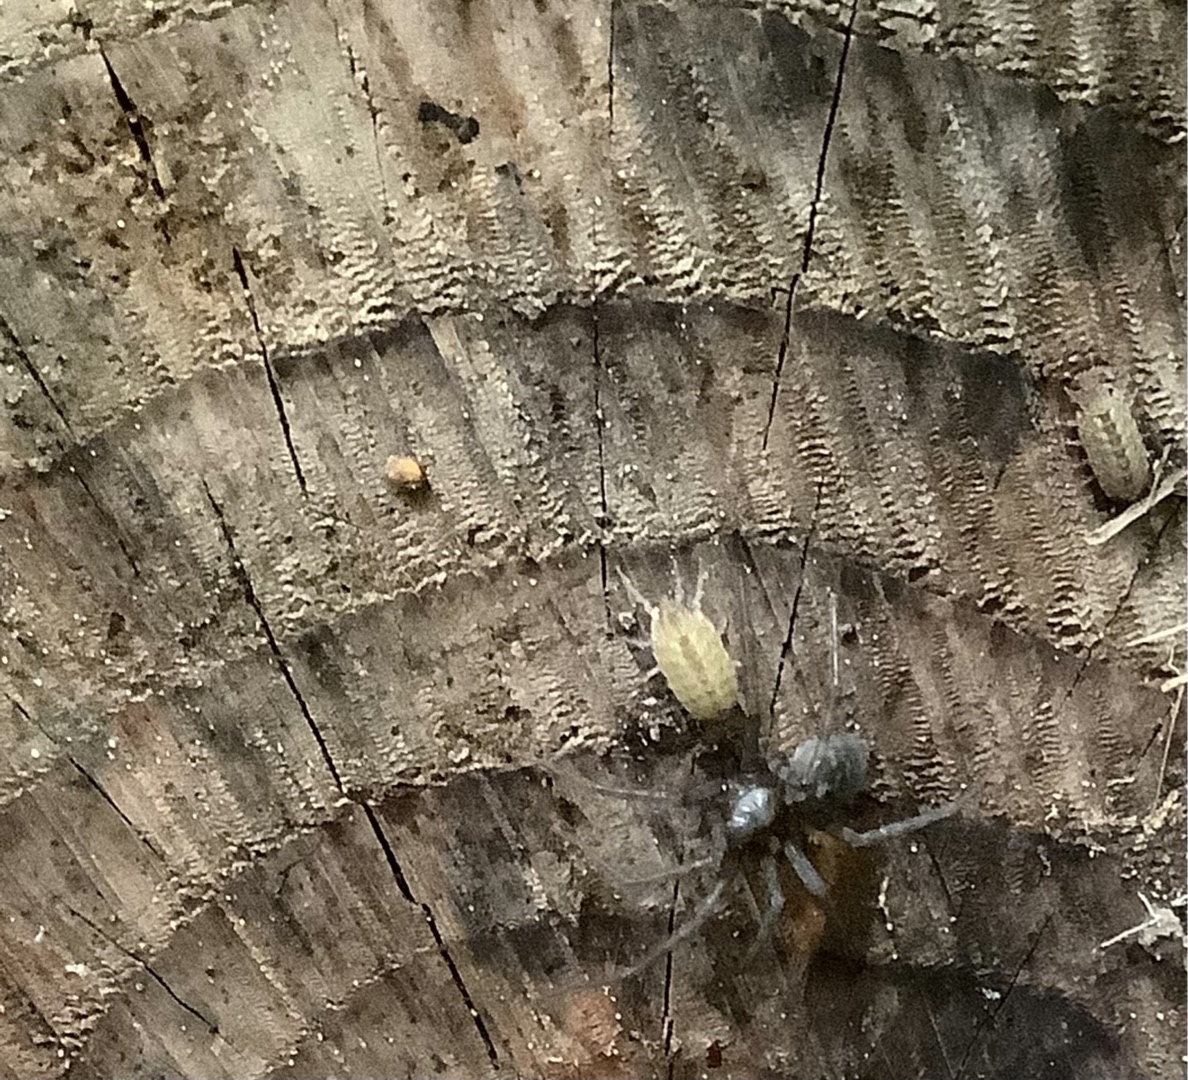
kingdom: Animalia
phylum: Arthropoda
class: Malacostraca
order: Isopoda
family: Oniscidae
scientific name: Oniscidae
